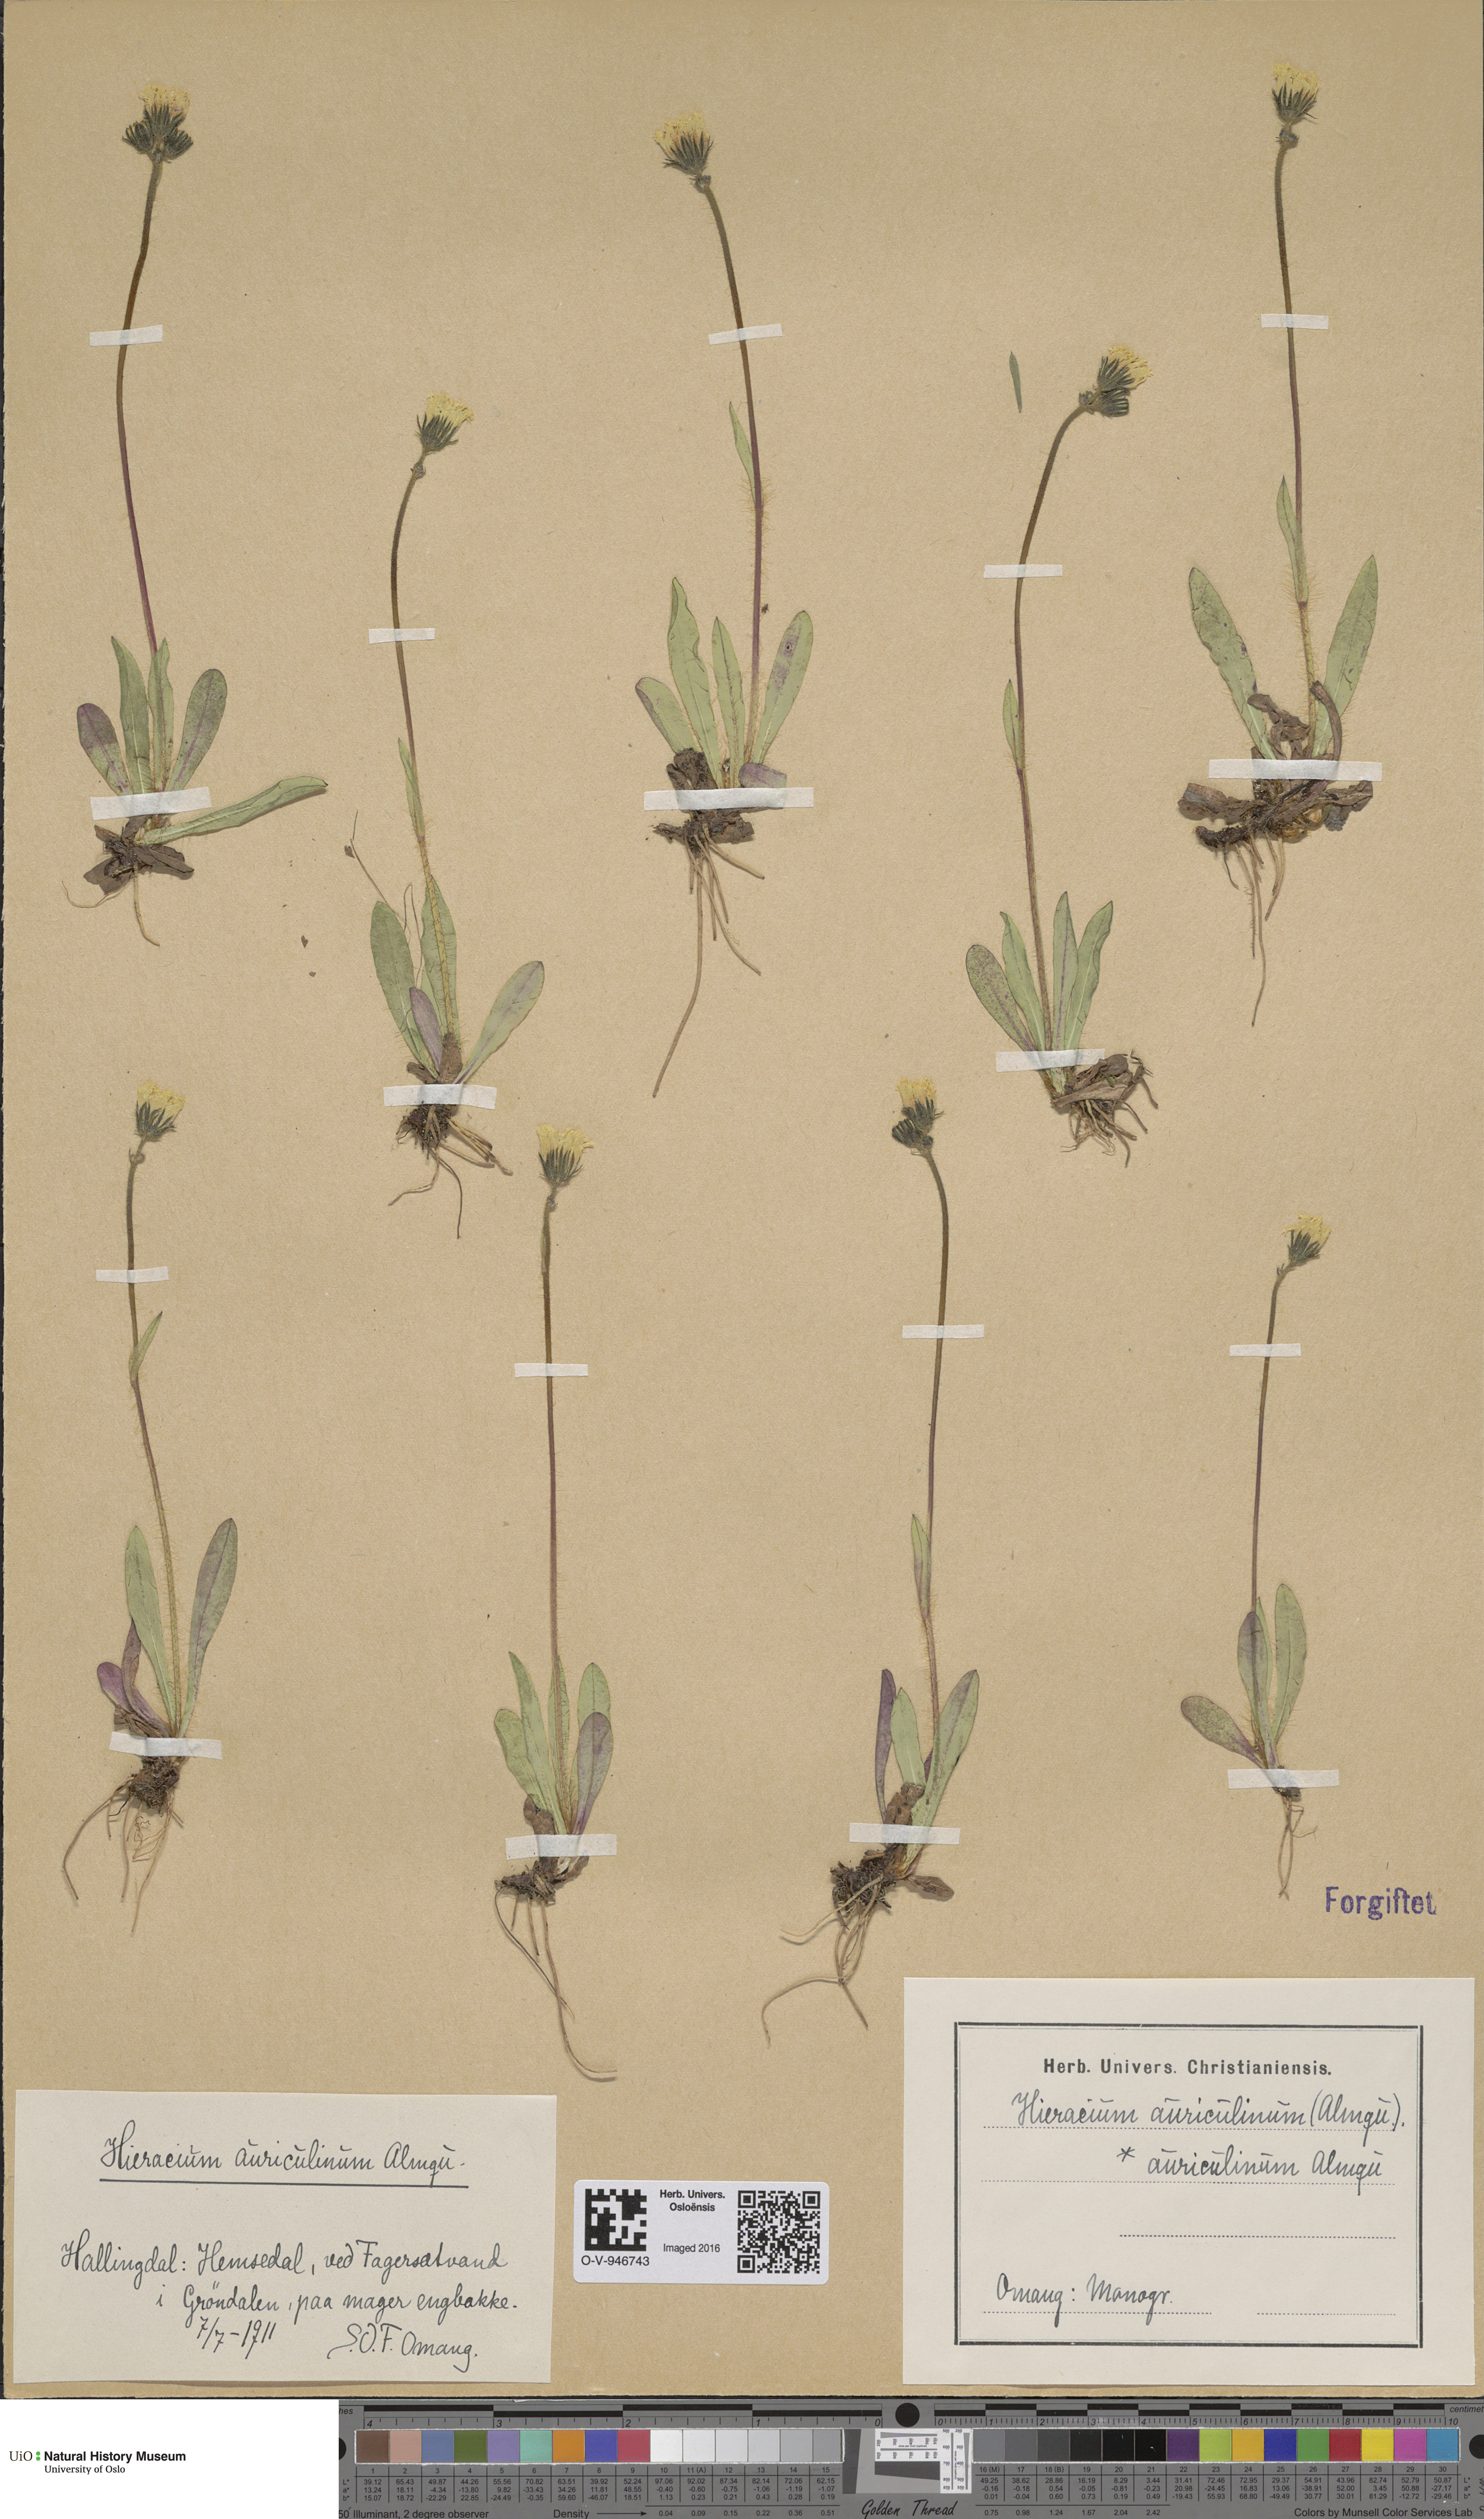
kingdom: Plantae
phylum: Tracheophyta
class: Magnoliopsida
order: Asterales
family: Asteraceae
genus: Pilosella
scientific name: Pilosella dubia
